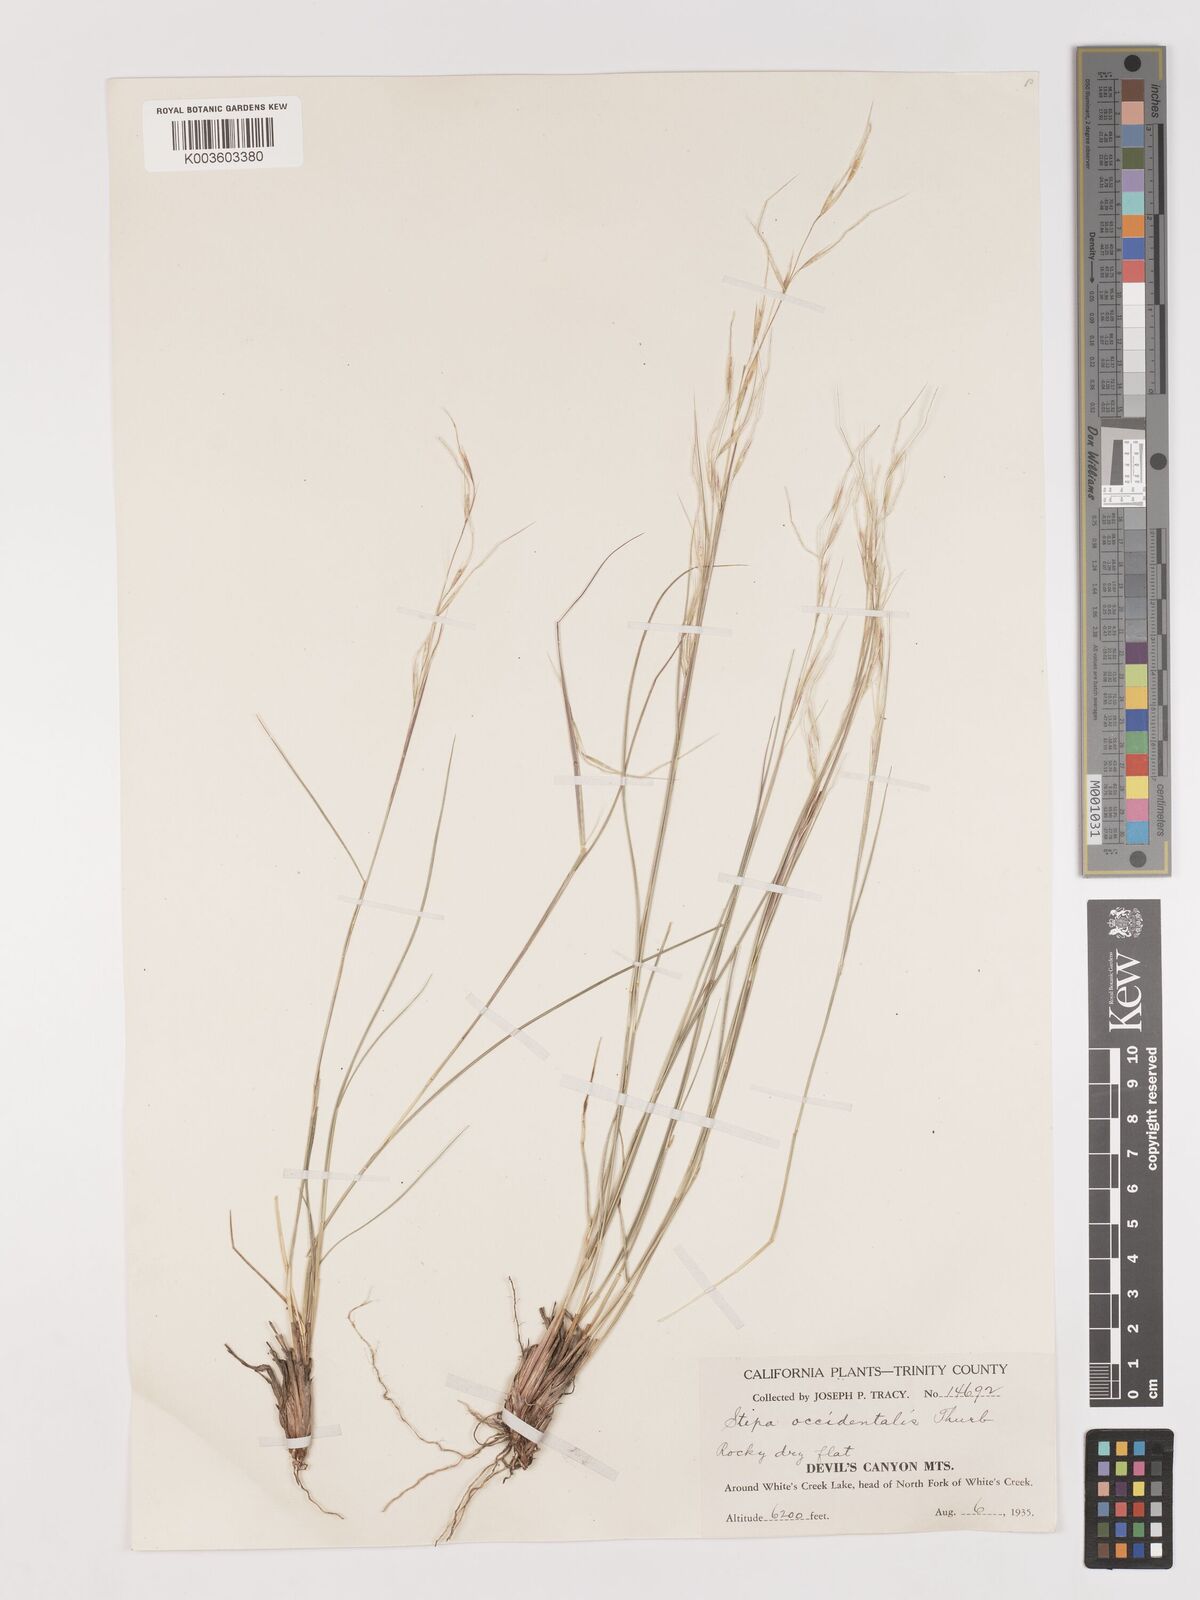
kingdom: Plantae
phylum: Tracheophyta
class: Liliopsida
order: Poales
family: Poaceae
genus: Eriocoma
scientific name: Eriocoma thurberiana
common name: Thurber's needlegrass
